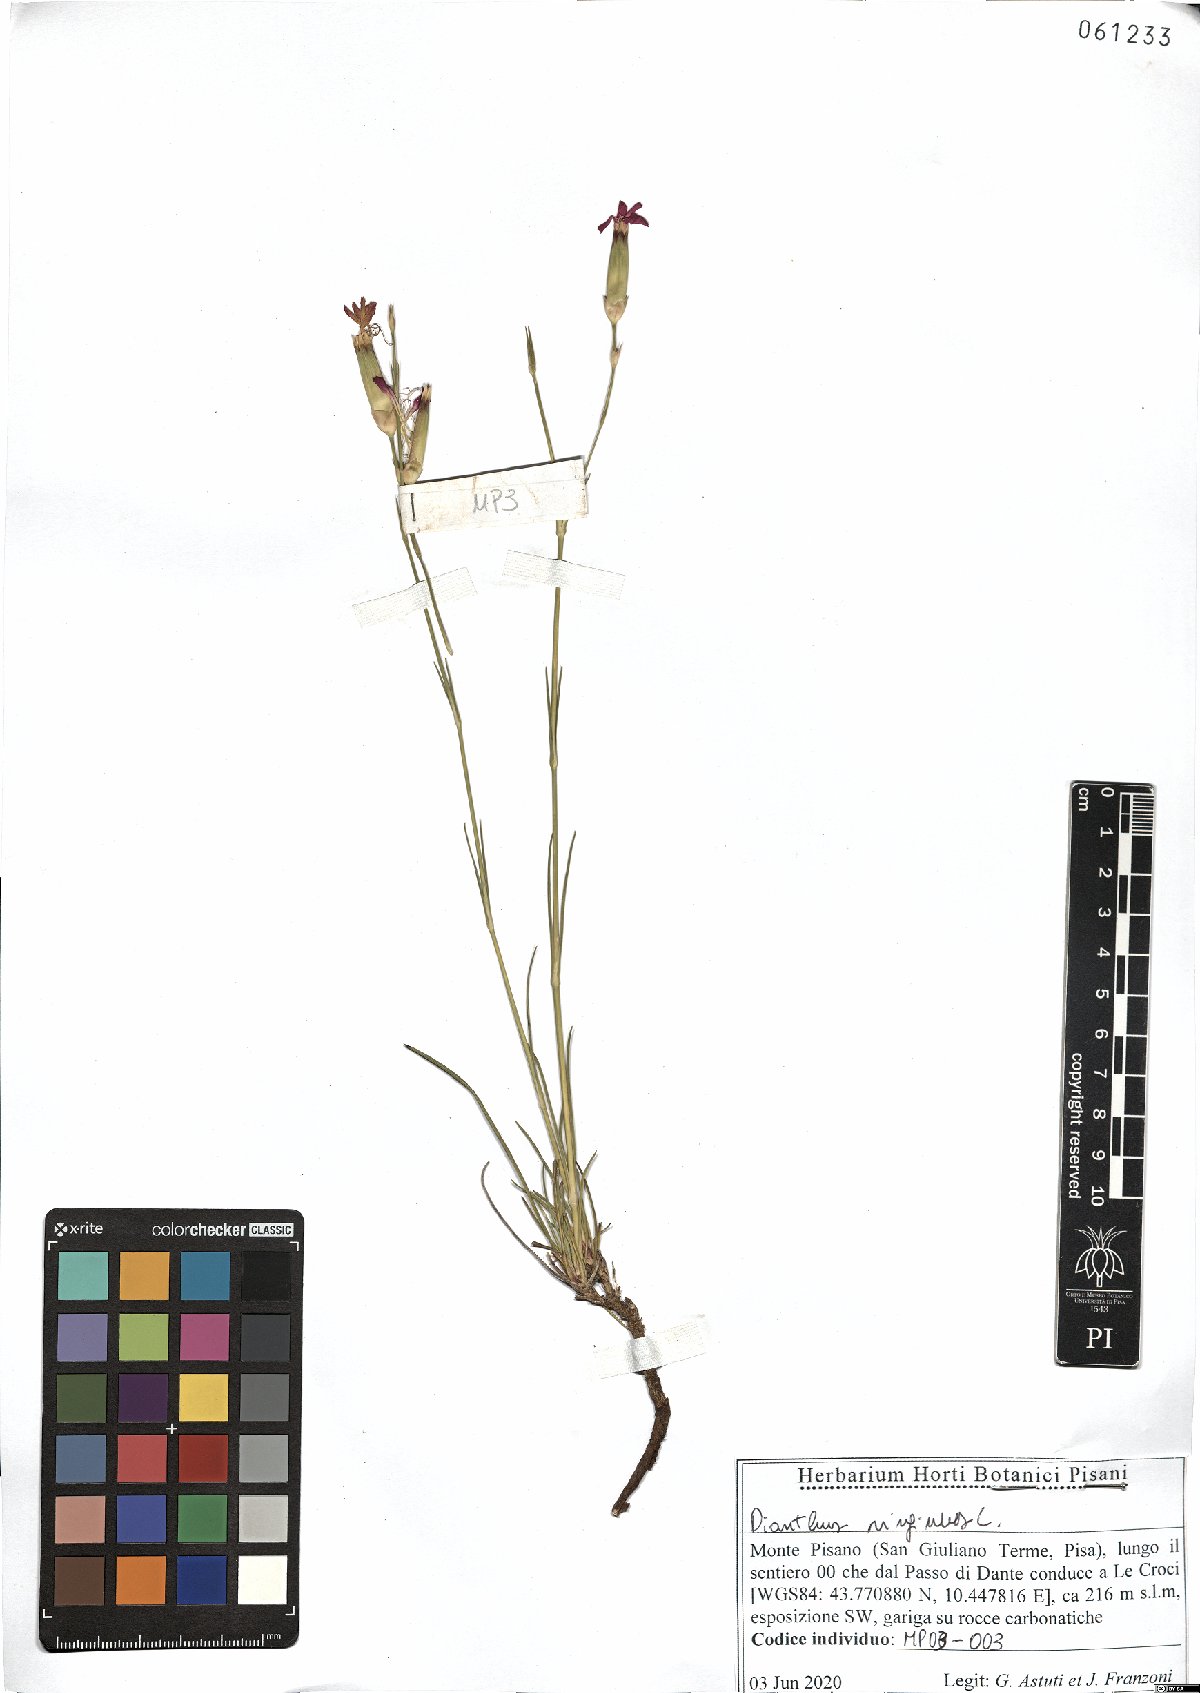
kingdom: Plantae
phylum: Tracheophyta
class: Magnoliopsida
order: Caryophyllales
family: Caryophyllaceae
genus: Dianthus
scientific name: Dianthus virgineus
